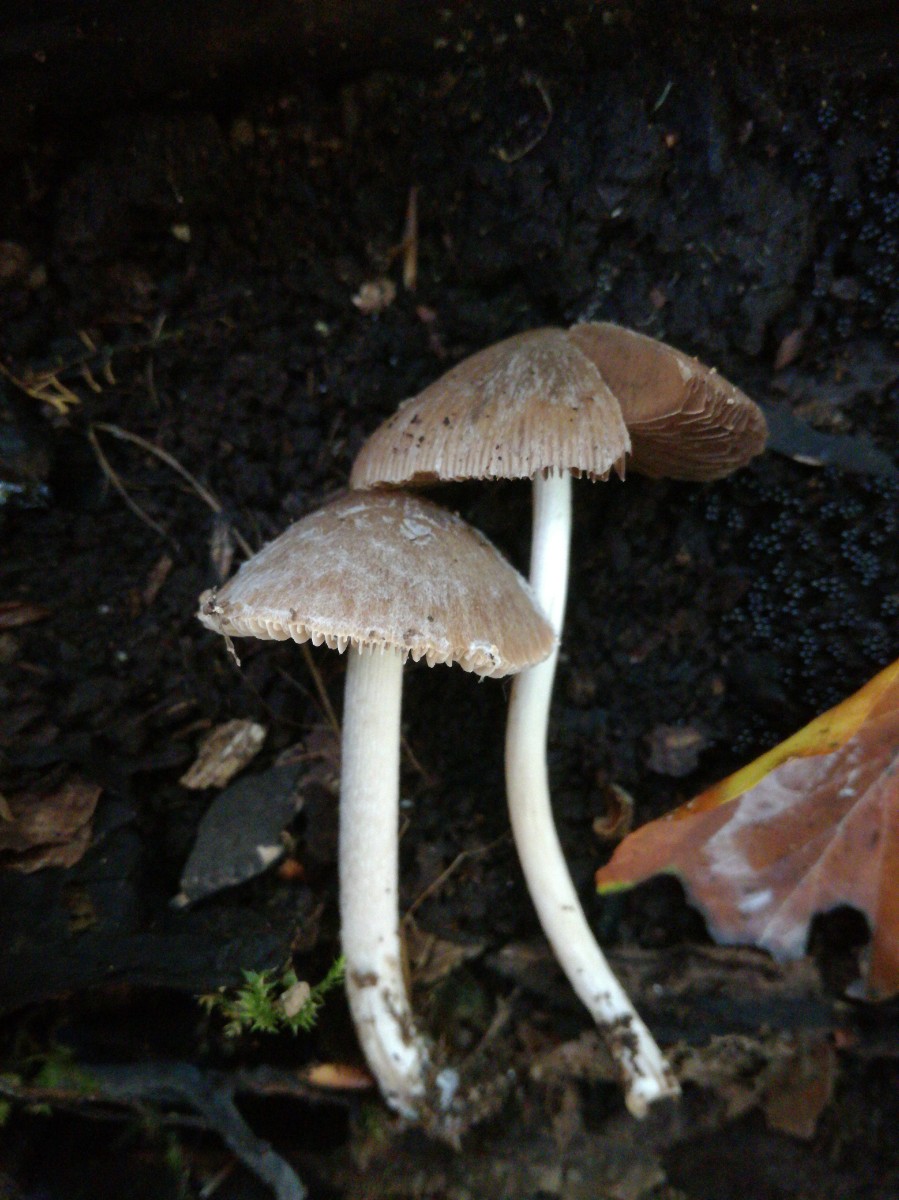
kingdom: Fungi
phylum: Basidiomycota
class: Agaricomycetes
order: Agaricales
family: Psathyrellaceae
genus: Psathyrella
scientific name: Psathyrella rostellata
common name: næbbet mørkhat
